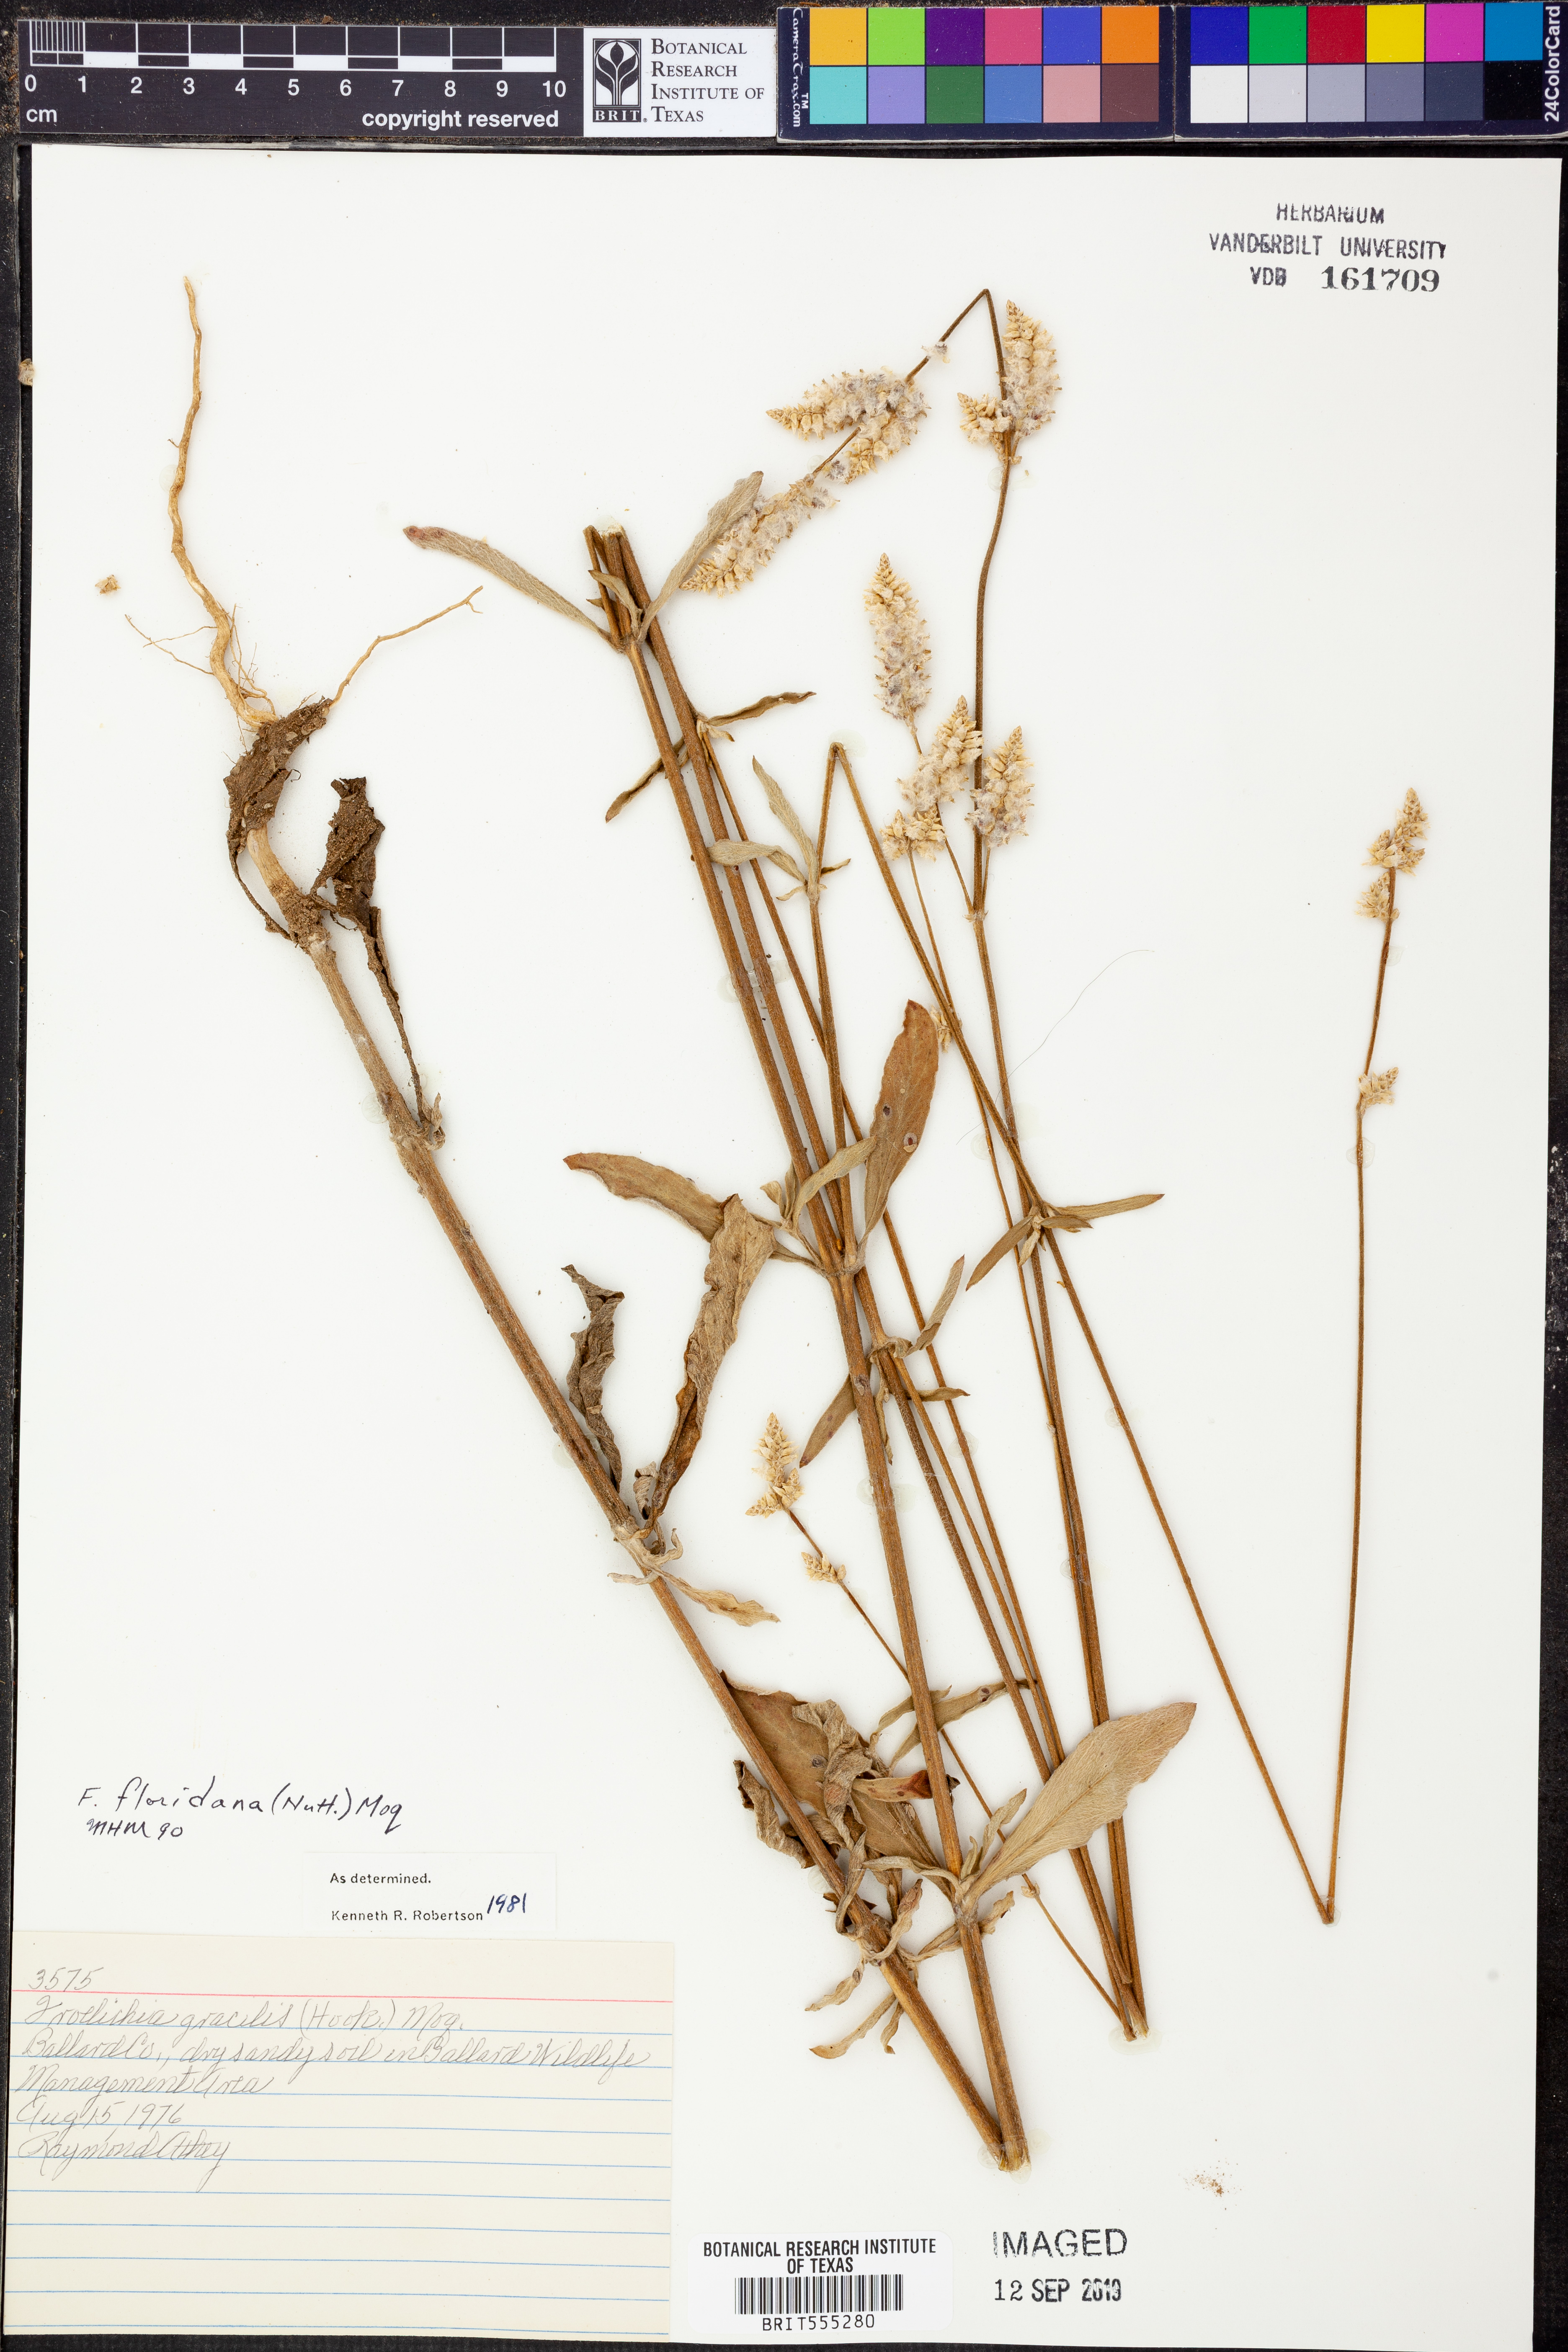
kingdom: Plantae
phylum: Tracheophyta
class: Magnoliopsida
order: Caryophyllales
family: Amaranthaceae
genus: Froelichia
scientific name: Froelichia floridana
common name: Florida snake-cotton
